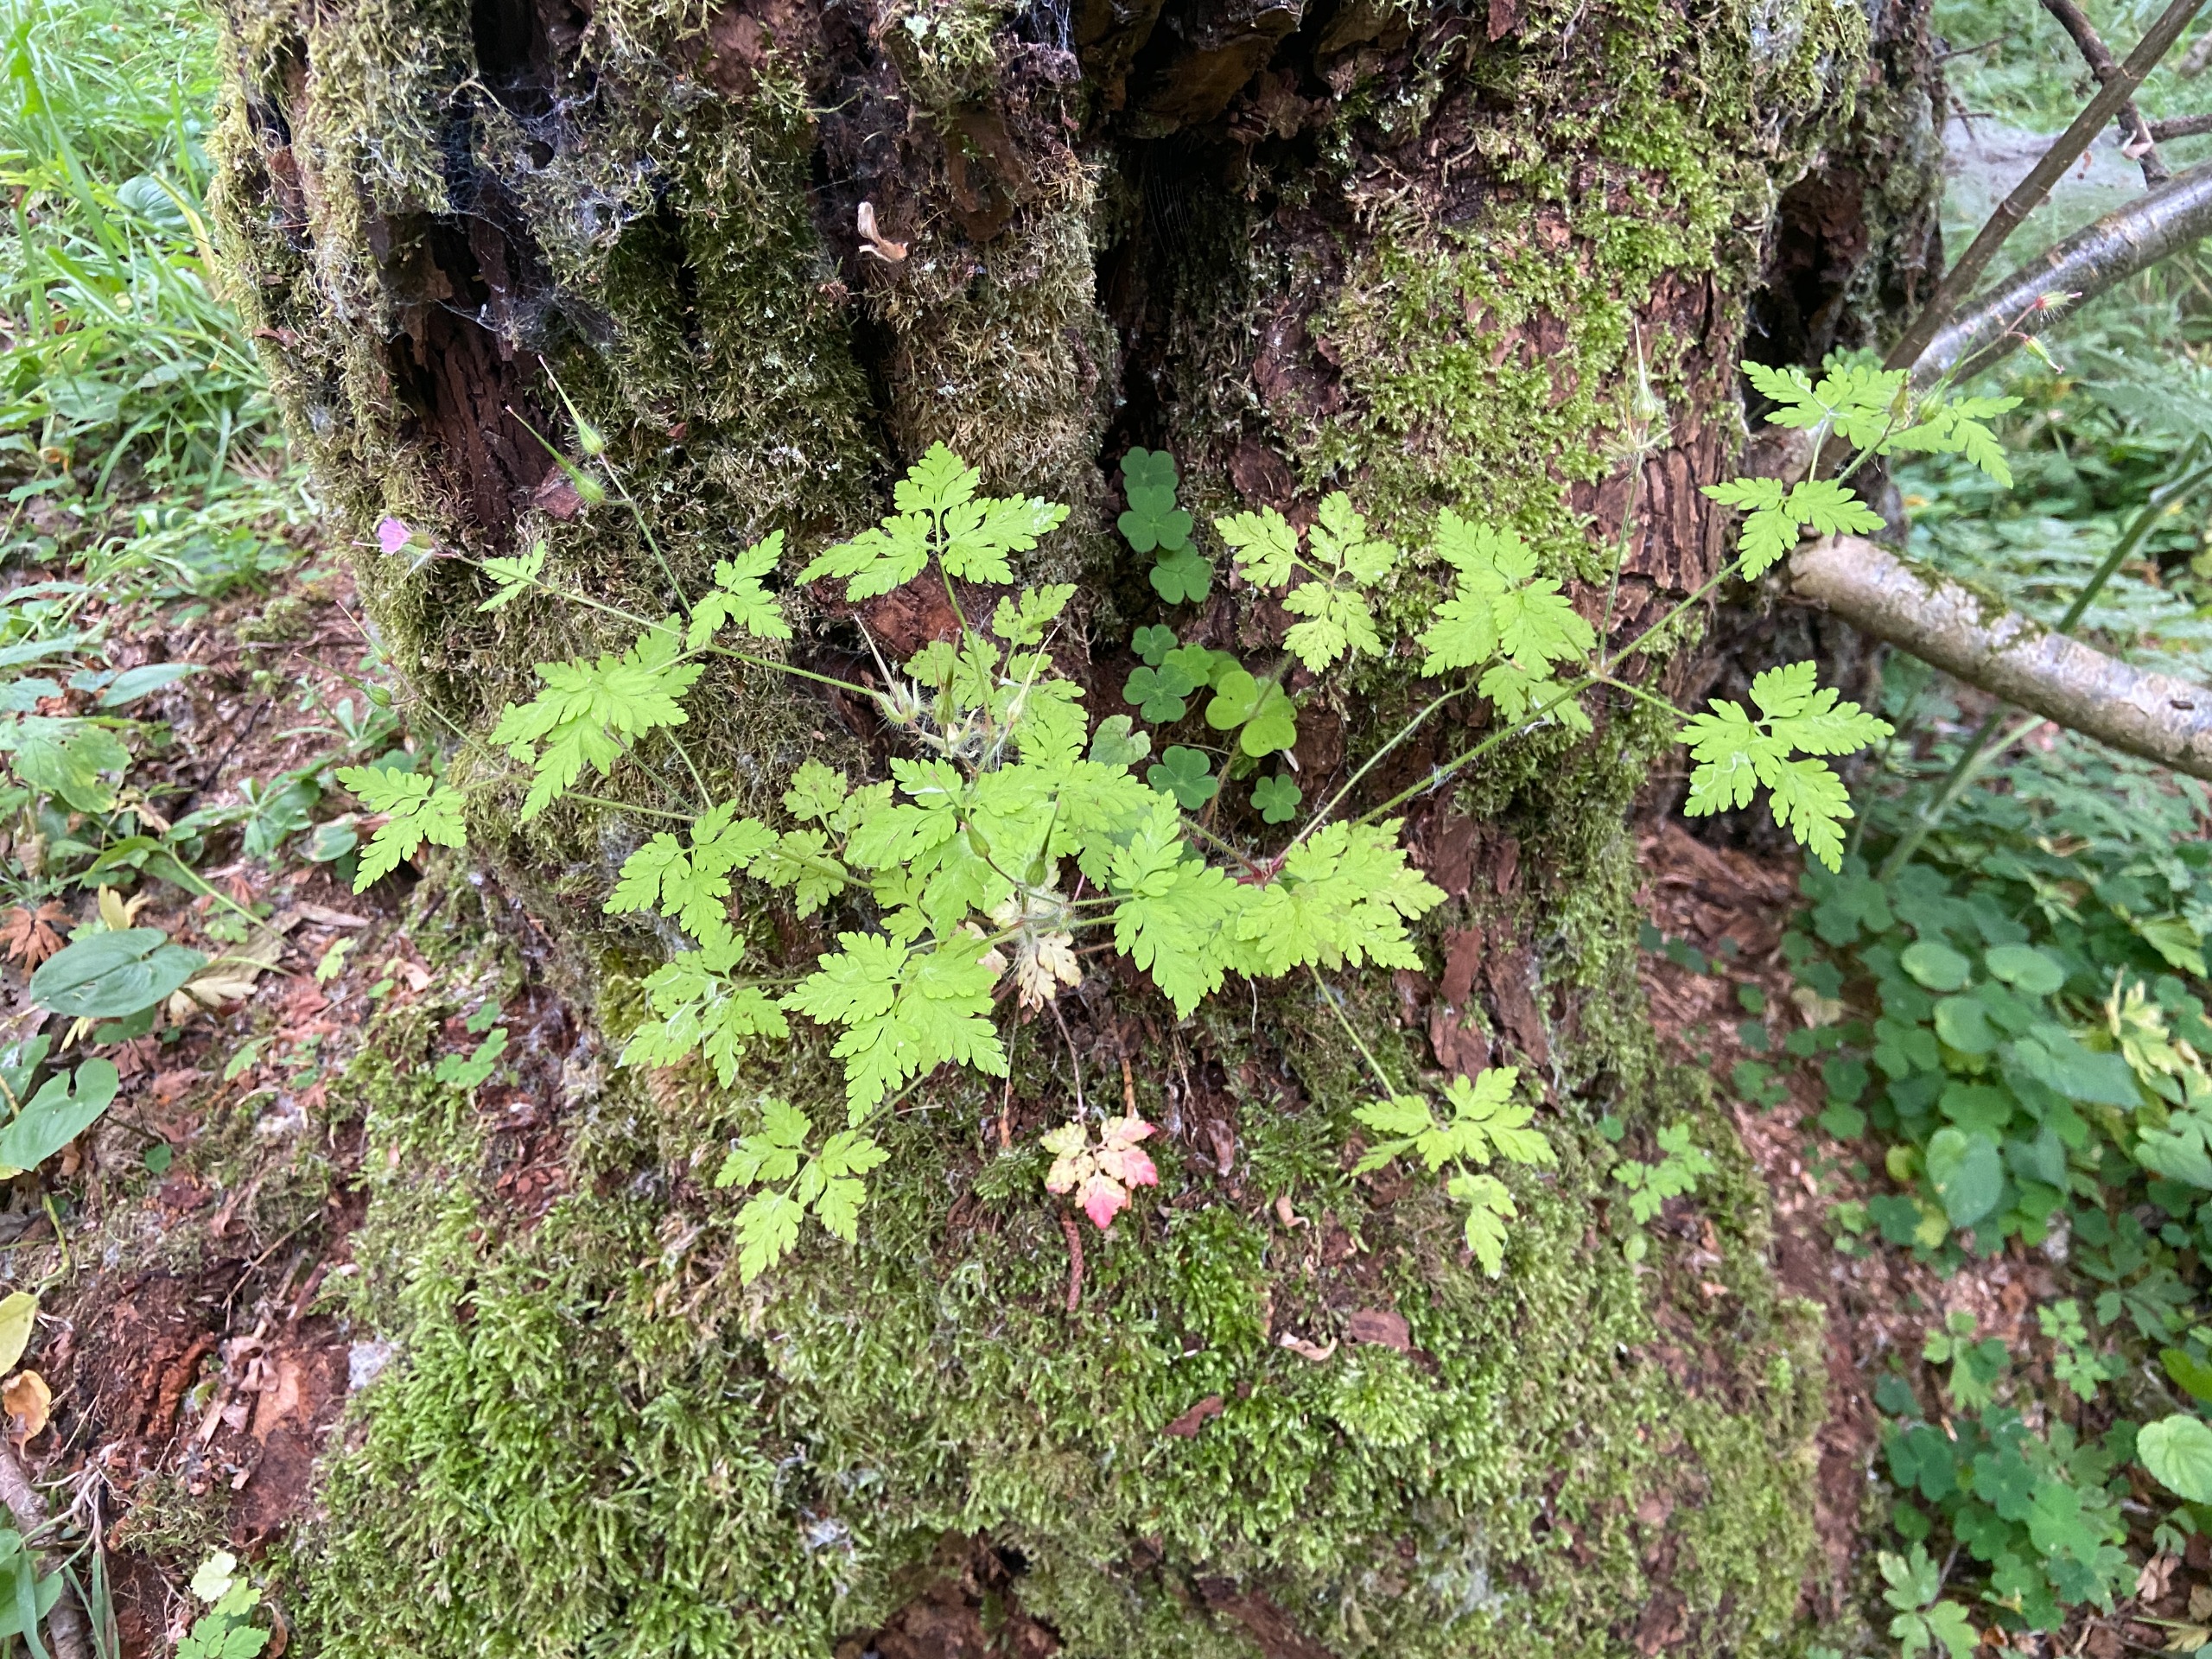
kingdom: Plantae
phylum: Tracheophyta
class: Magnoliopsida
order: Geraniales
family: Geraniaceae
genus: Geranium
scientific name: Geranium robertianum
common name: Stinkende storkenæb
